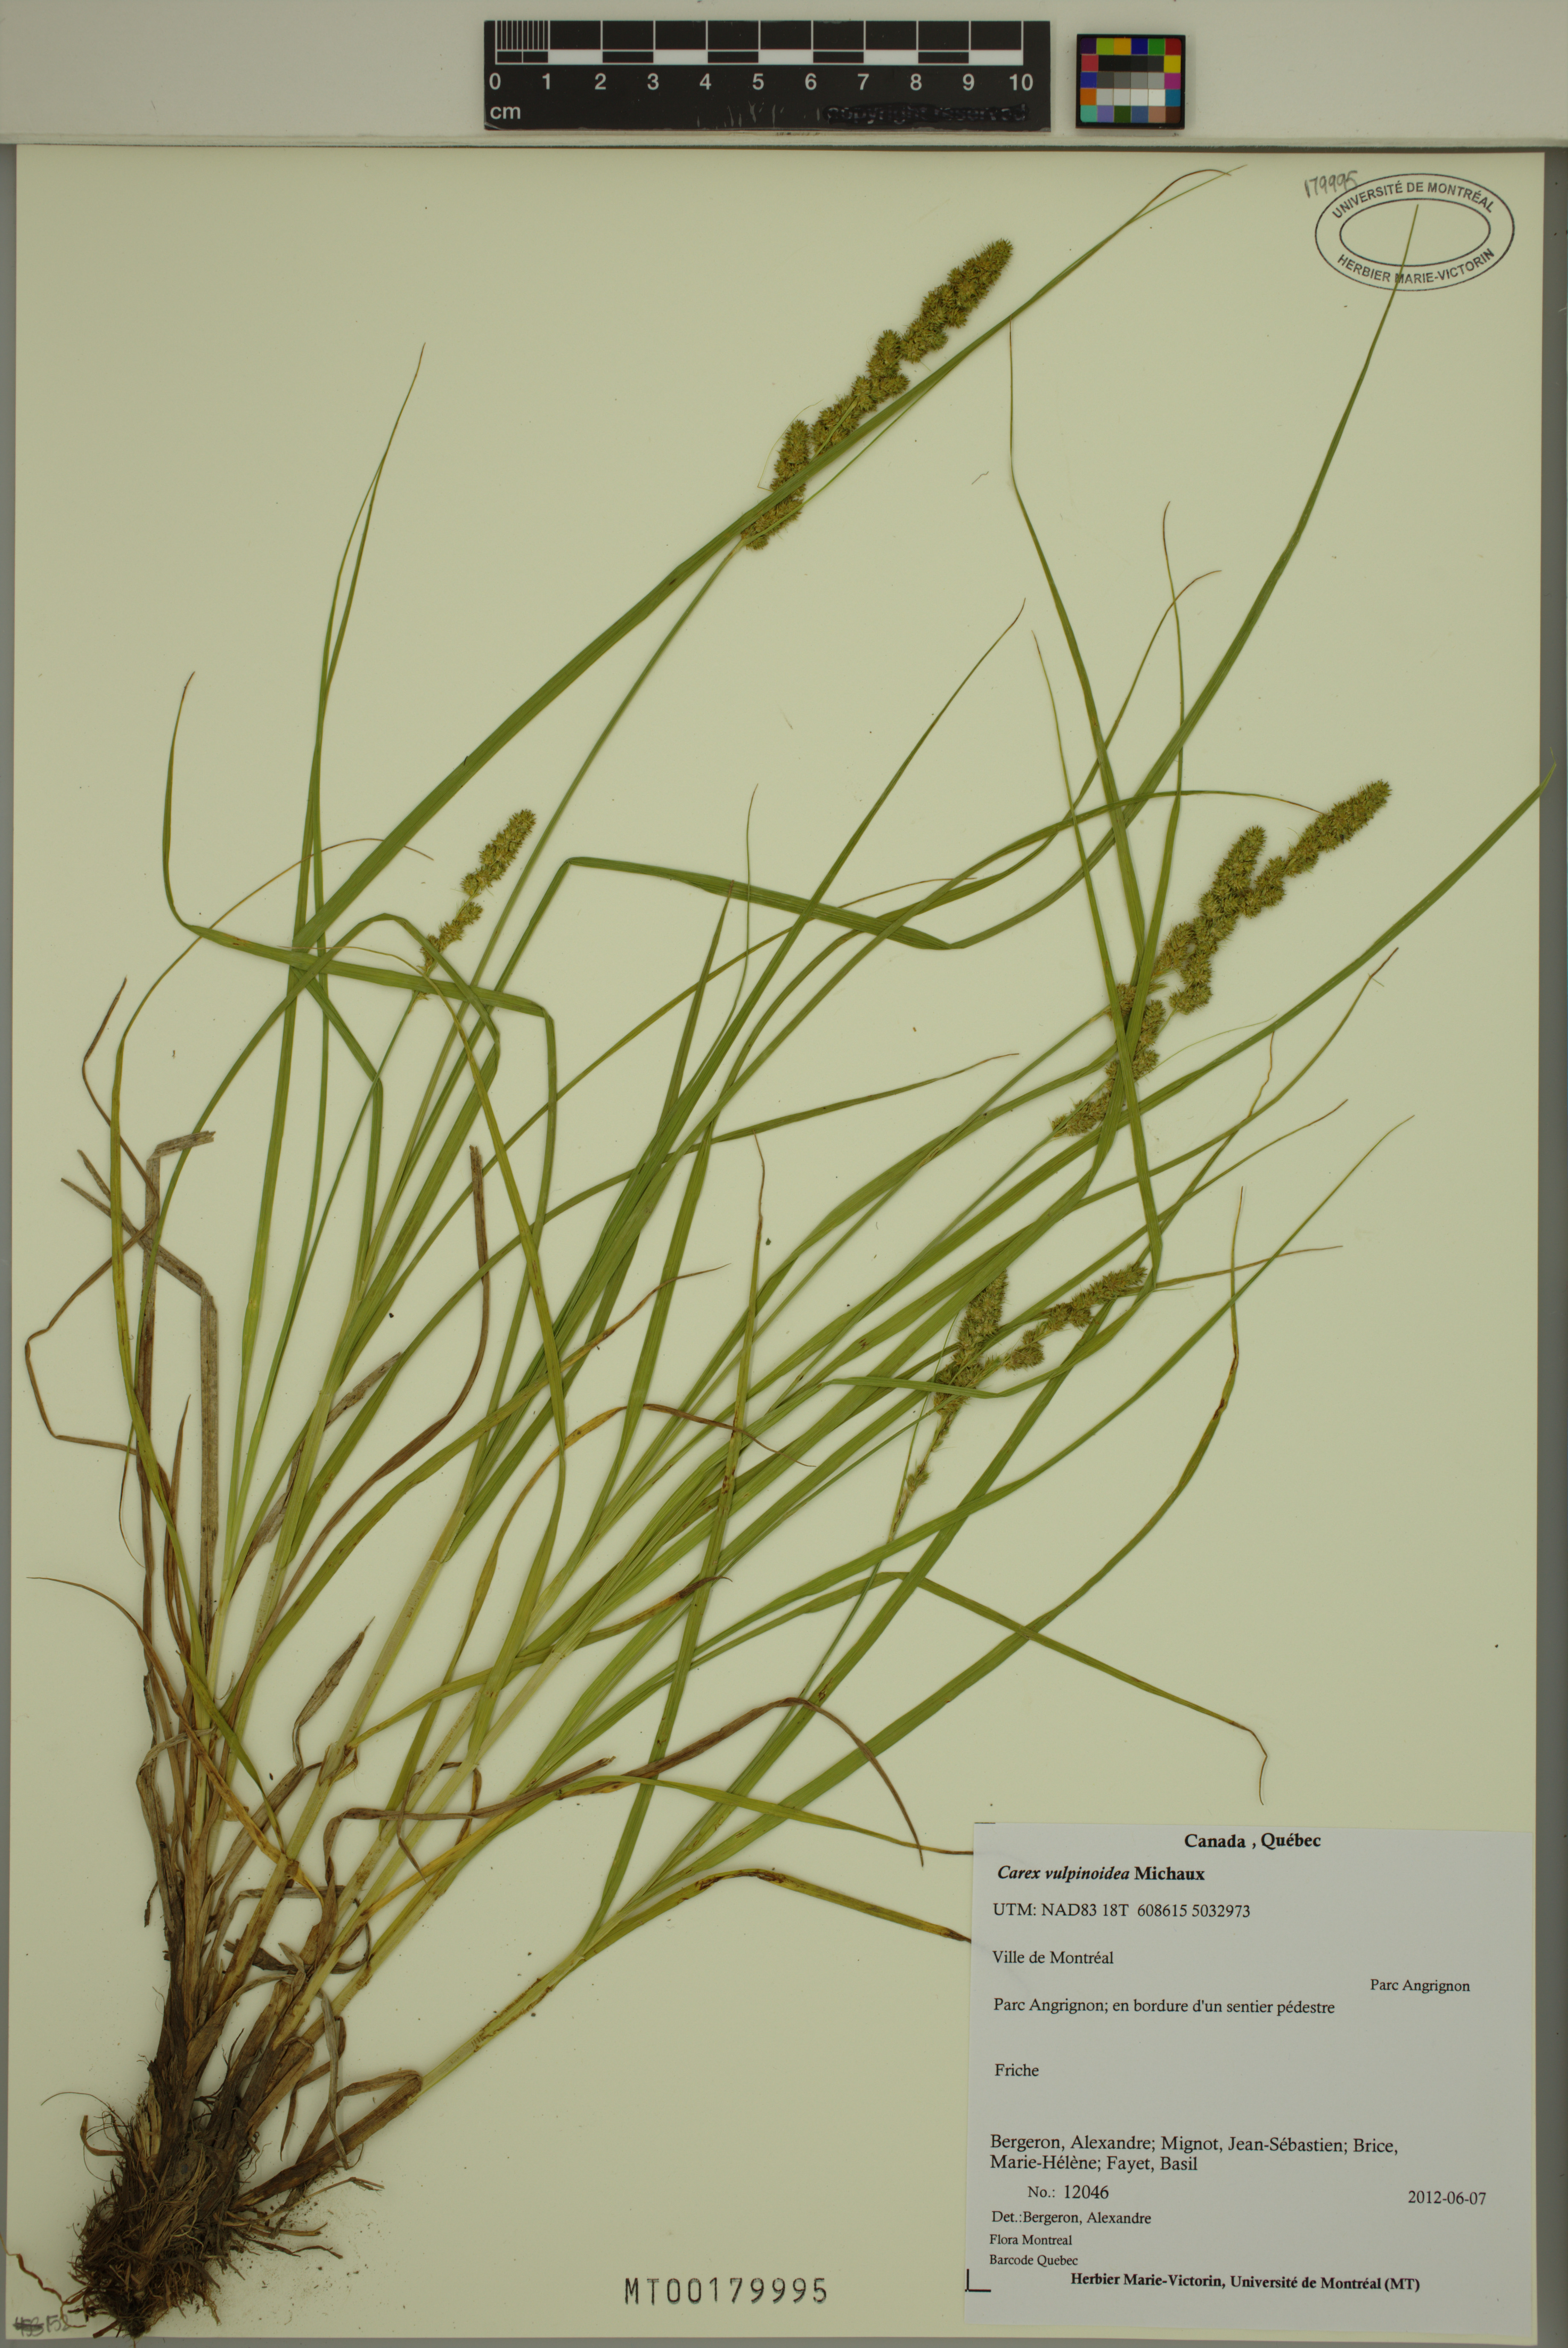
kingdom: Plantae
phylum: Tracheophyta
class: Liliopsida
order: Poales
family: Cyperaceae
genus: Carex
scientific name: Carex vulpinoidea
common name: American fox-sedge
